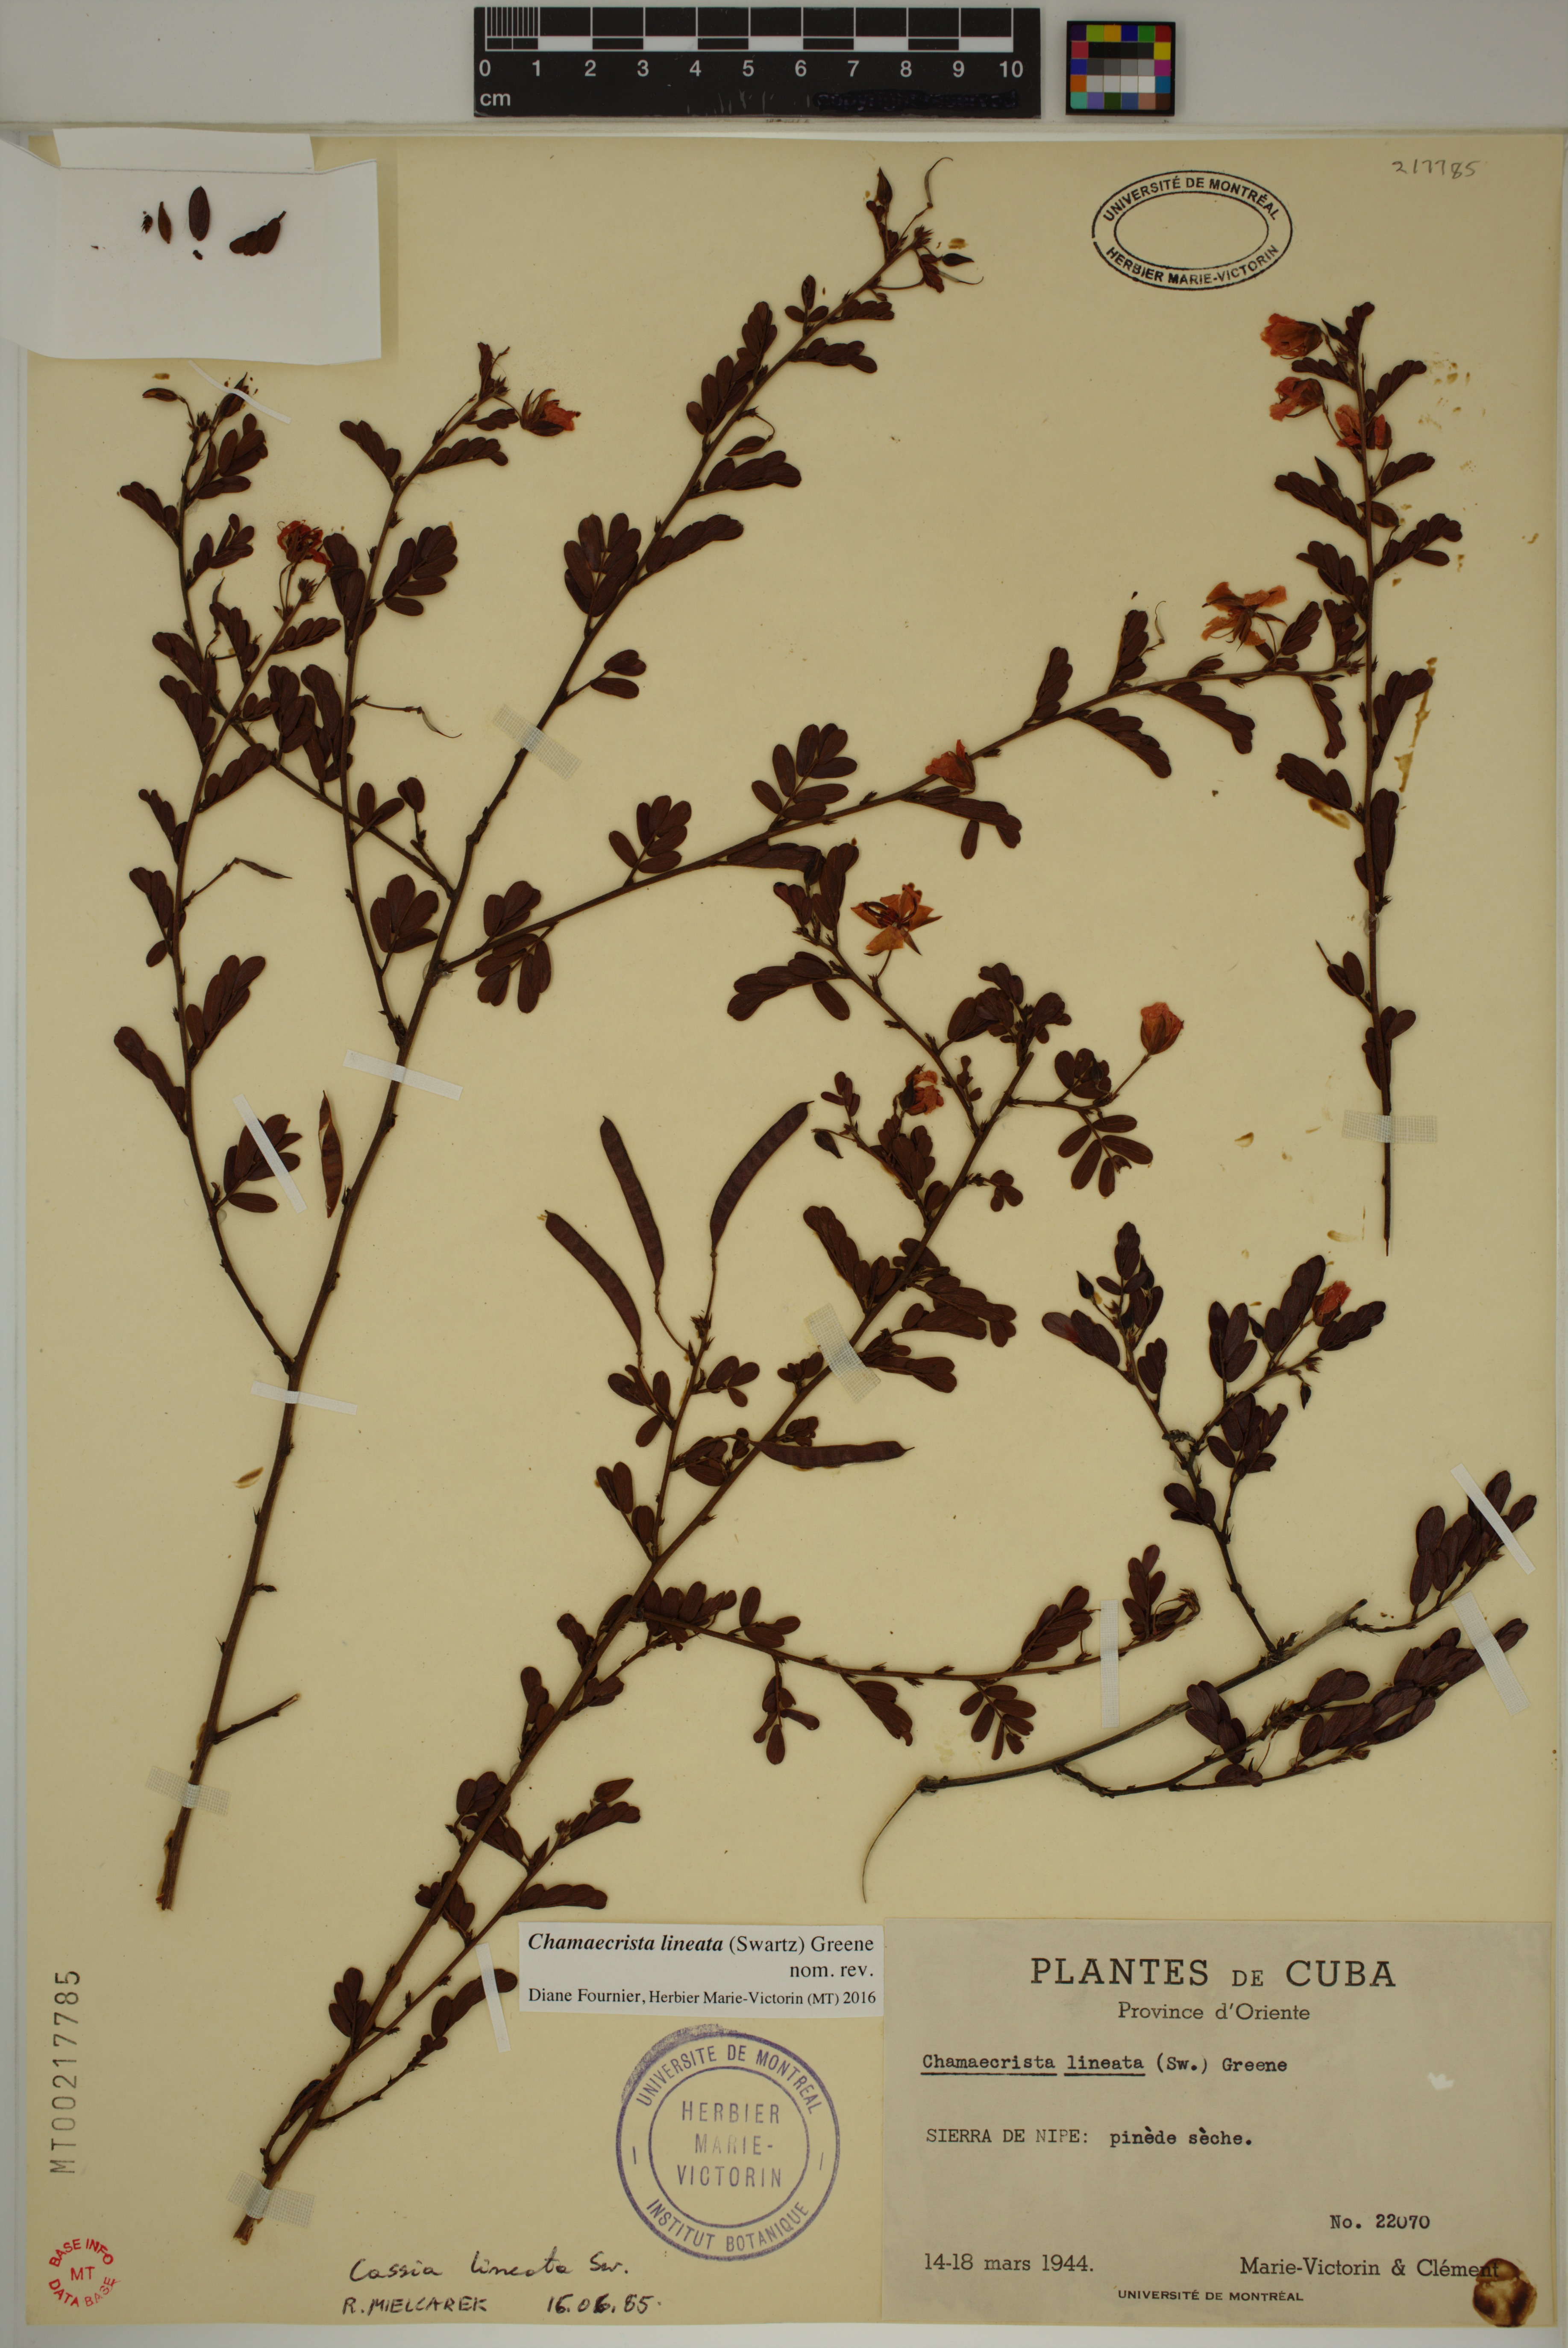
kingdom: Plantae
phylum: Tracheophyta
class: Magnoliopsida
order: Fabales
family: Fabaceae
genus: Chamaecrista
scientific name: Chamaecrista lineata
